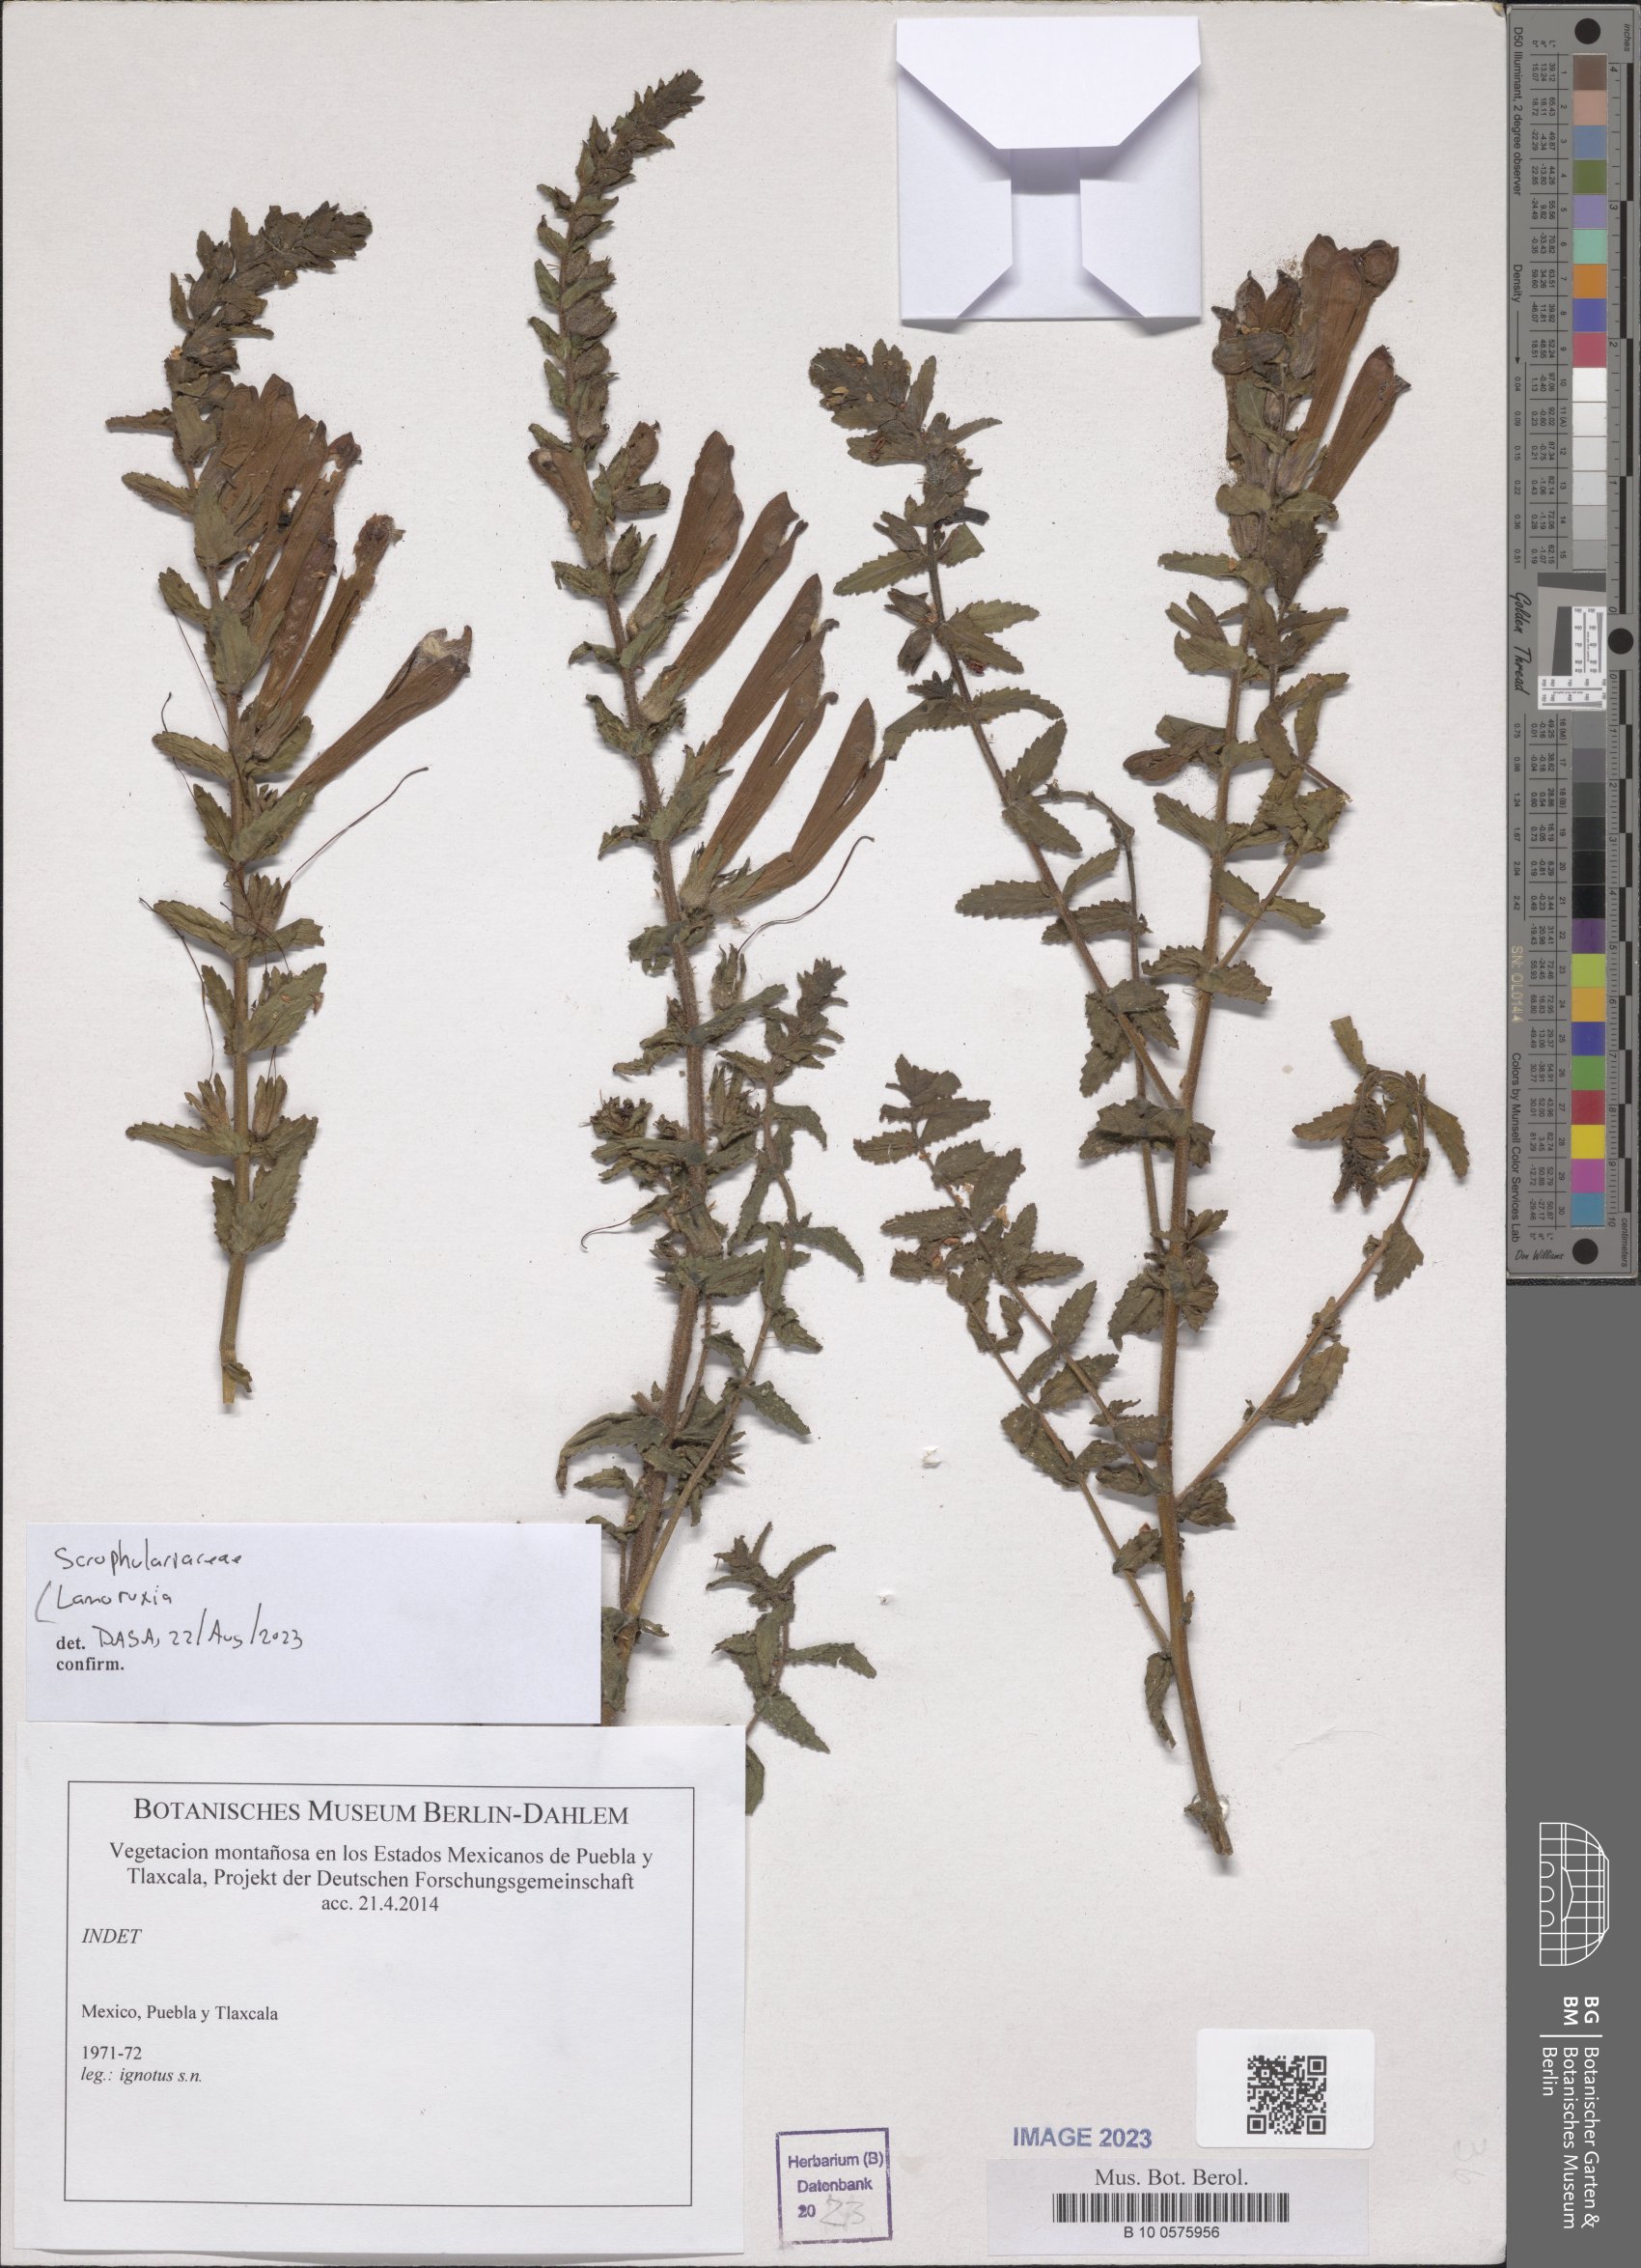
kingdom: Plantae
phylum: Tracheophyta
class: Magnoliopsida
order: Lamiales
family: Orobanchaceae
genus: Lamourouxia
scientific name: Lamourouxia
